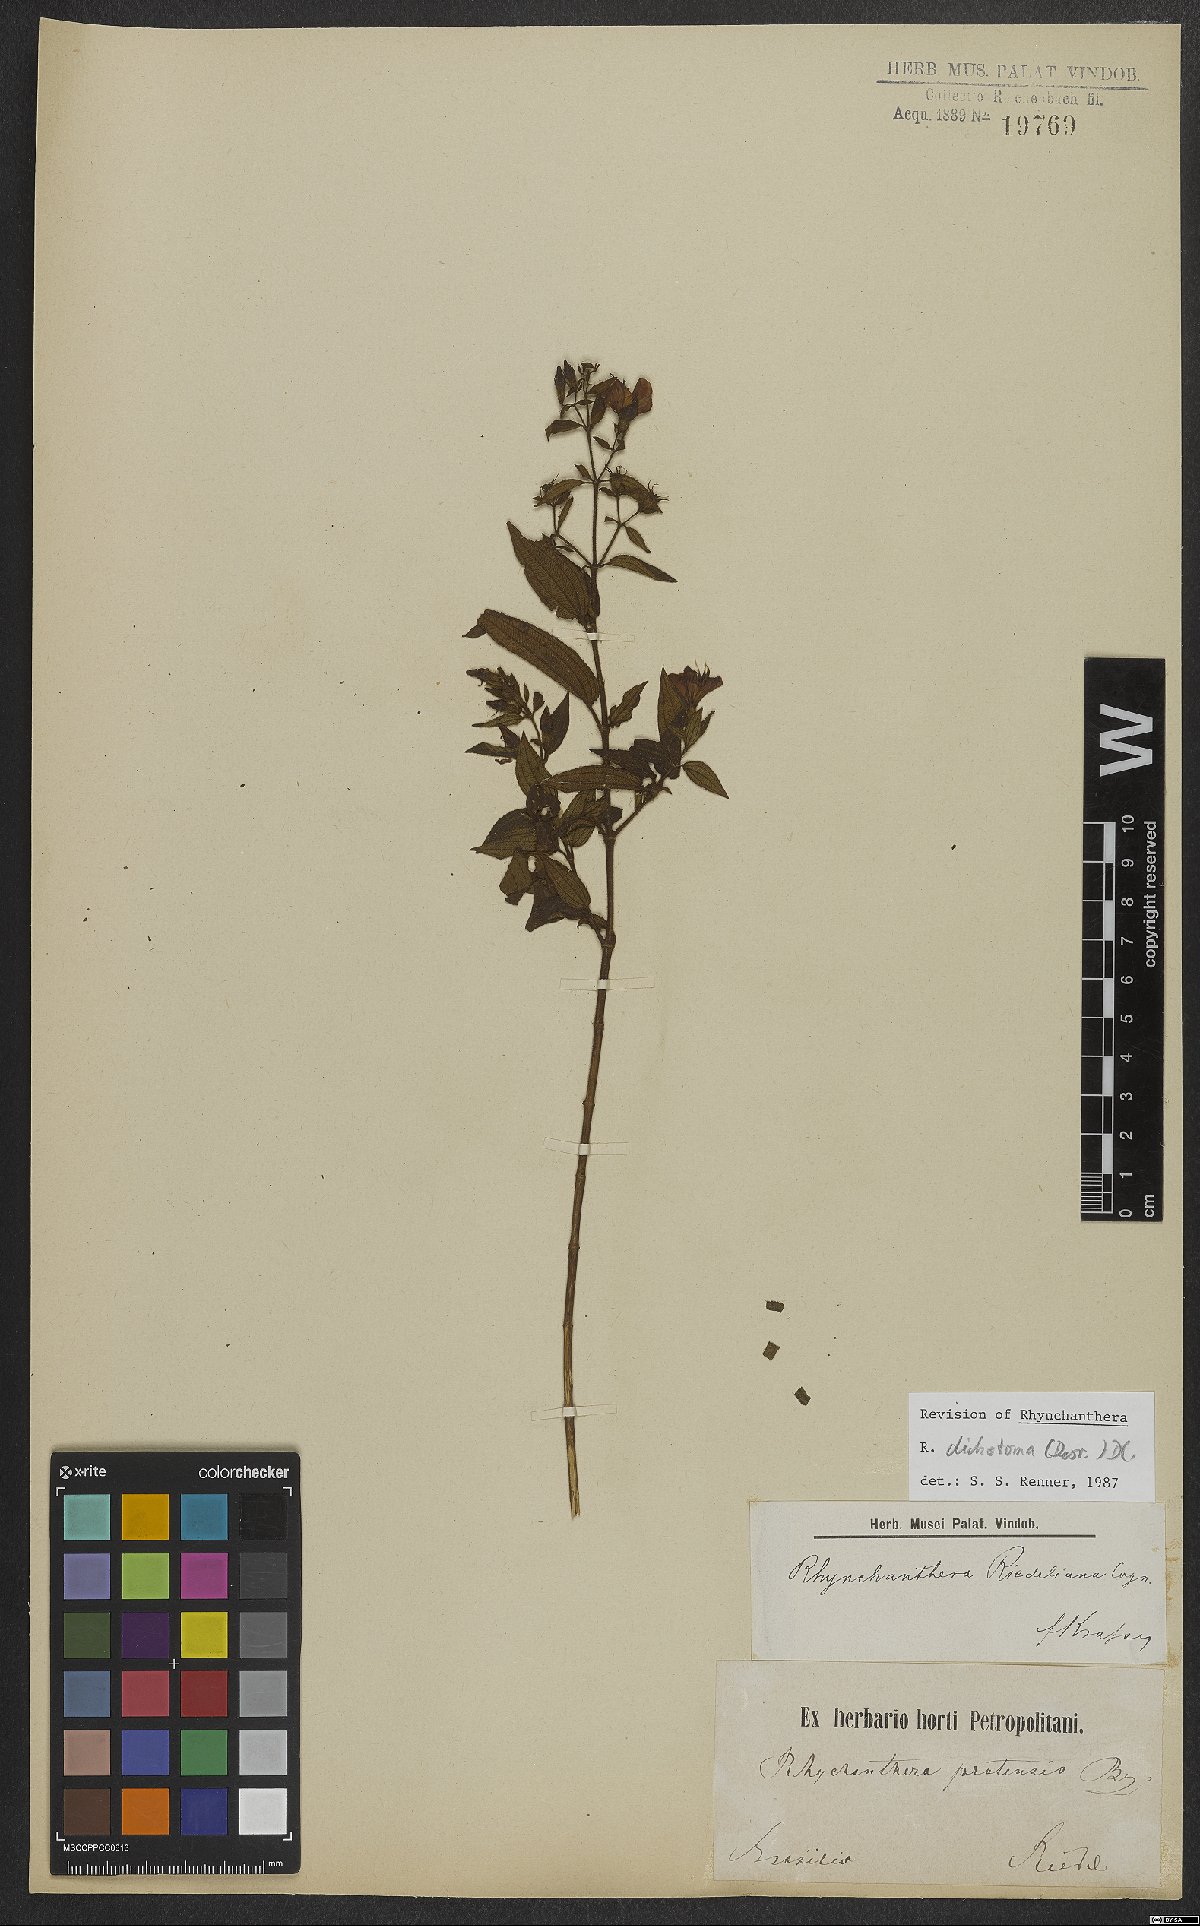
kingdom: Plantae
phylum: Tracheophyta
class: Magnoliopsida
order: Myrtales
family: Melastomataceae
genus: Rhynchanthera
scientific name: Rhynchanthera dichotoma
